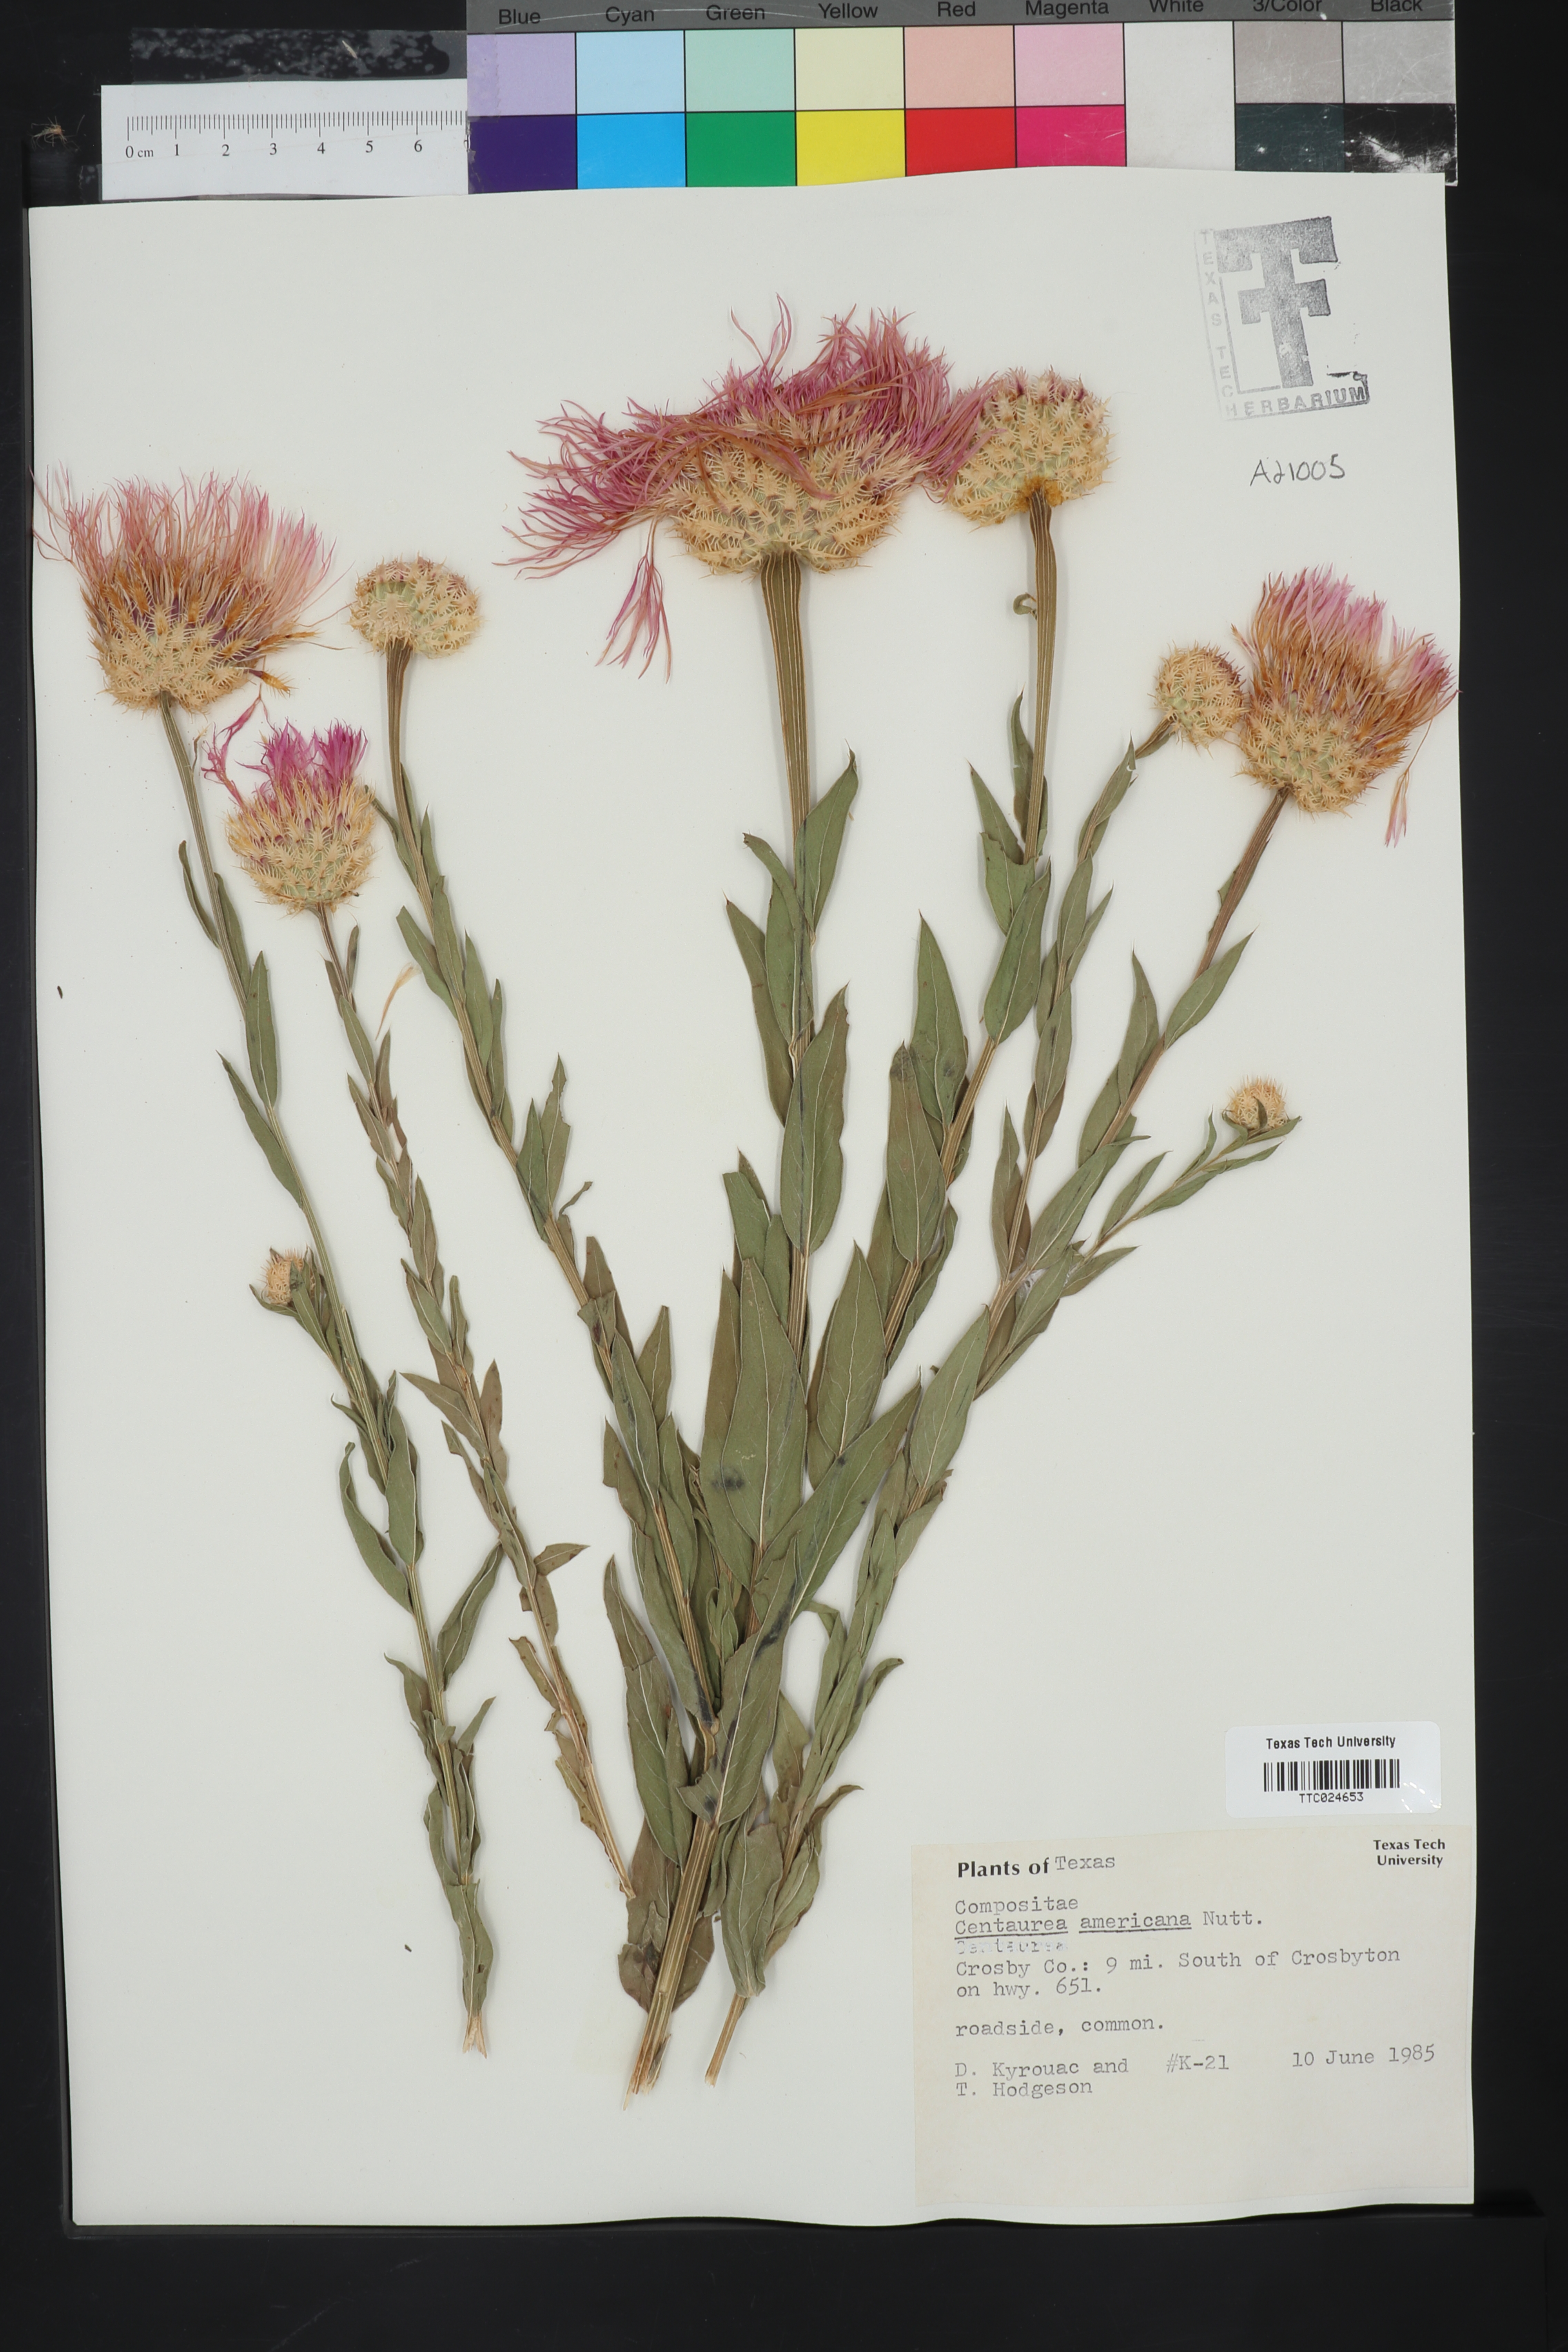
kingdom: Plantae
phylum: Tracheophyta
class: Magnoliopsida
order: Asterales
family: Asteraceae
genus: Plectocephalus
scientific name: Plectocephalus americanus
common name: American basket-flower
